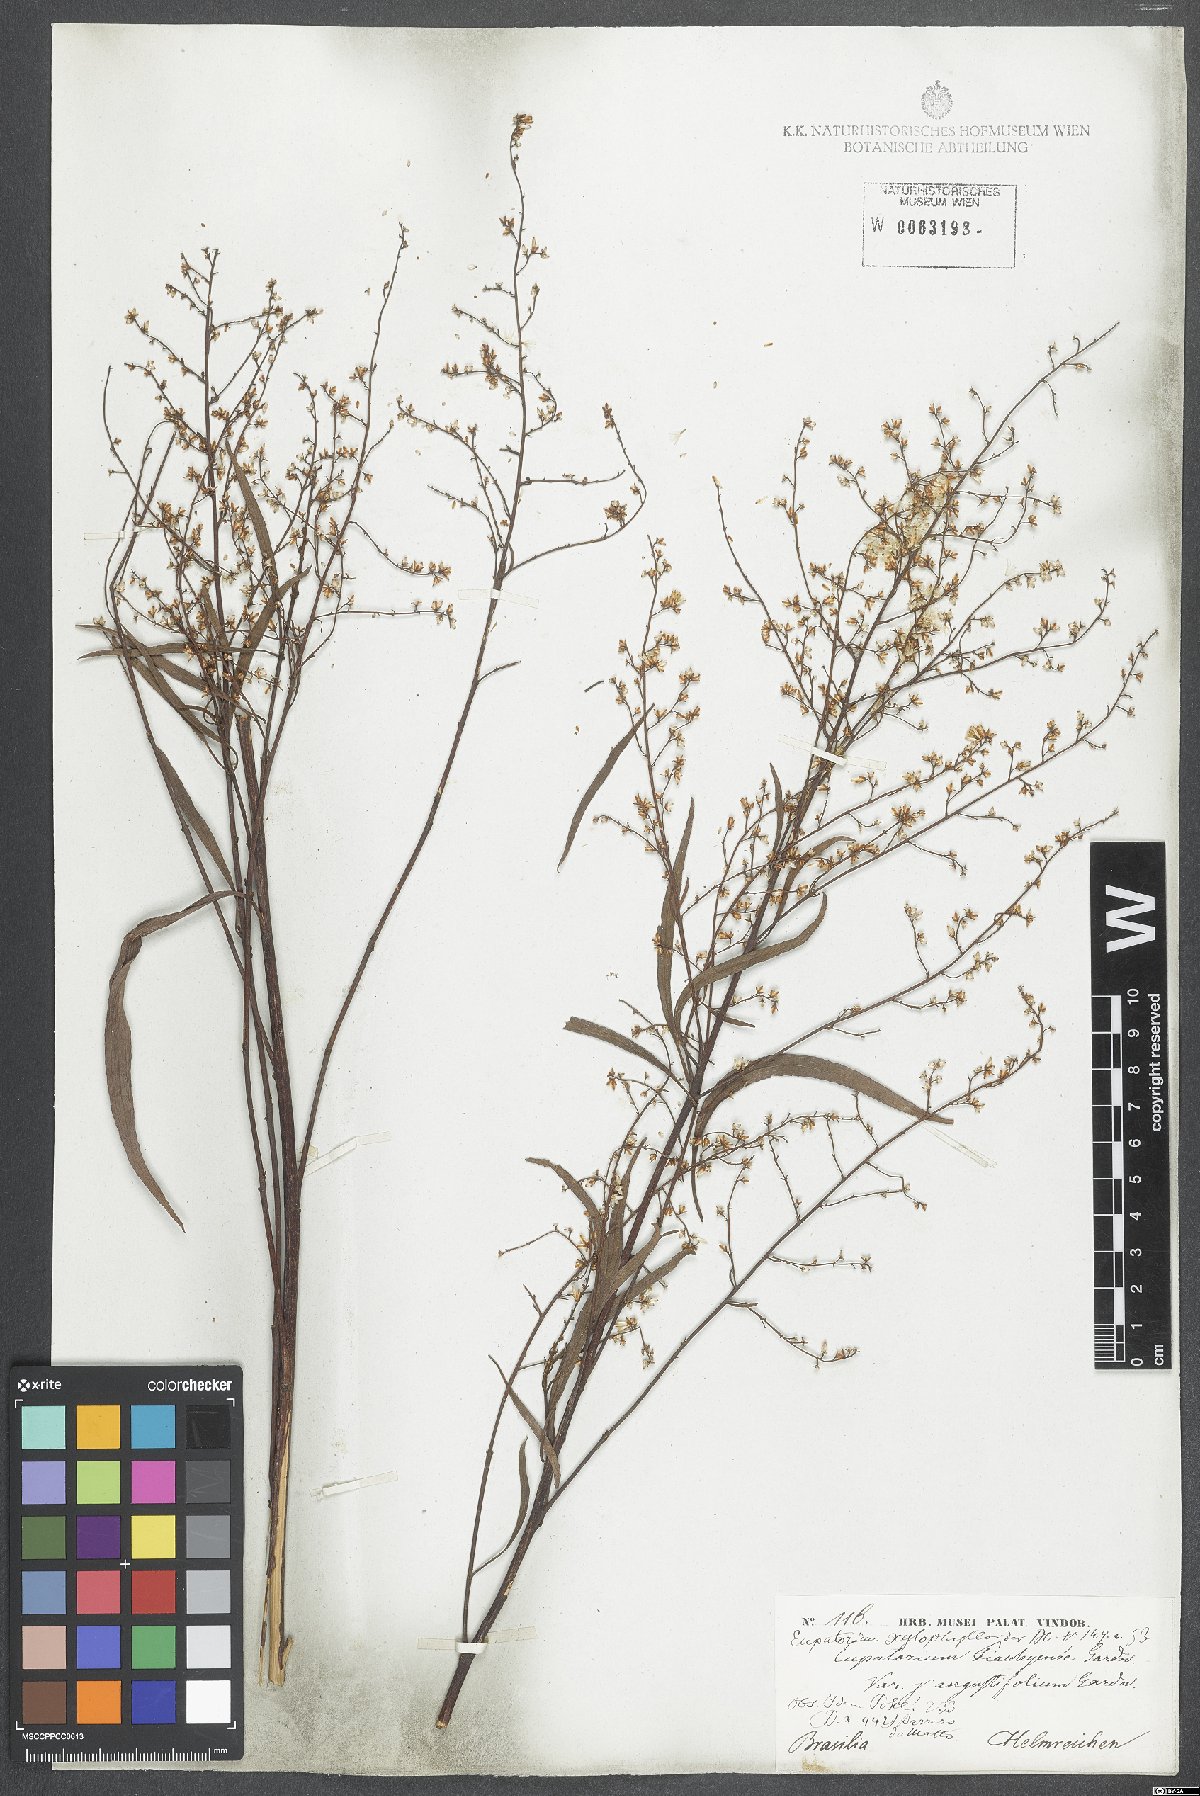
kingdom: Plantae
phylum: Tracheophyta
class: Magnoliopsida
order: Asterales
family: Asteraceae
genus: Raulinoreitzia
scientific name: Raulinoreitzia tremula
